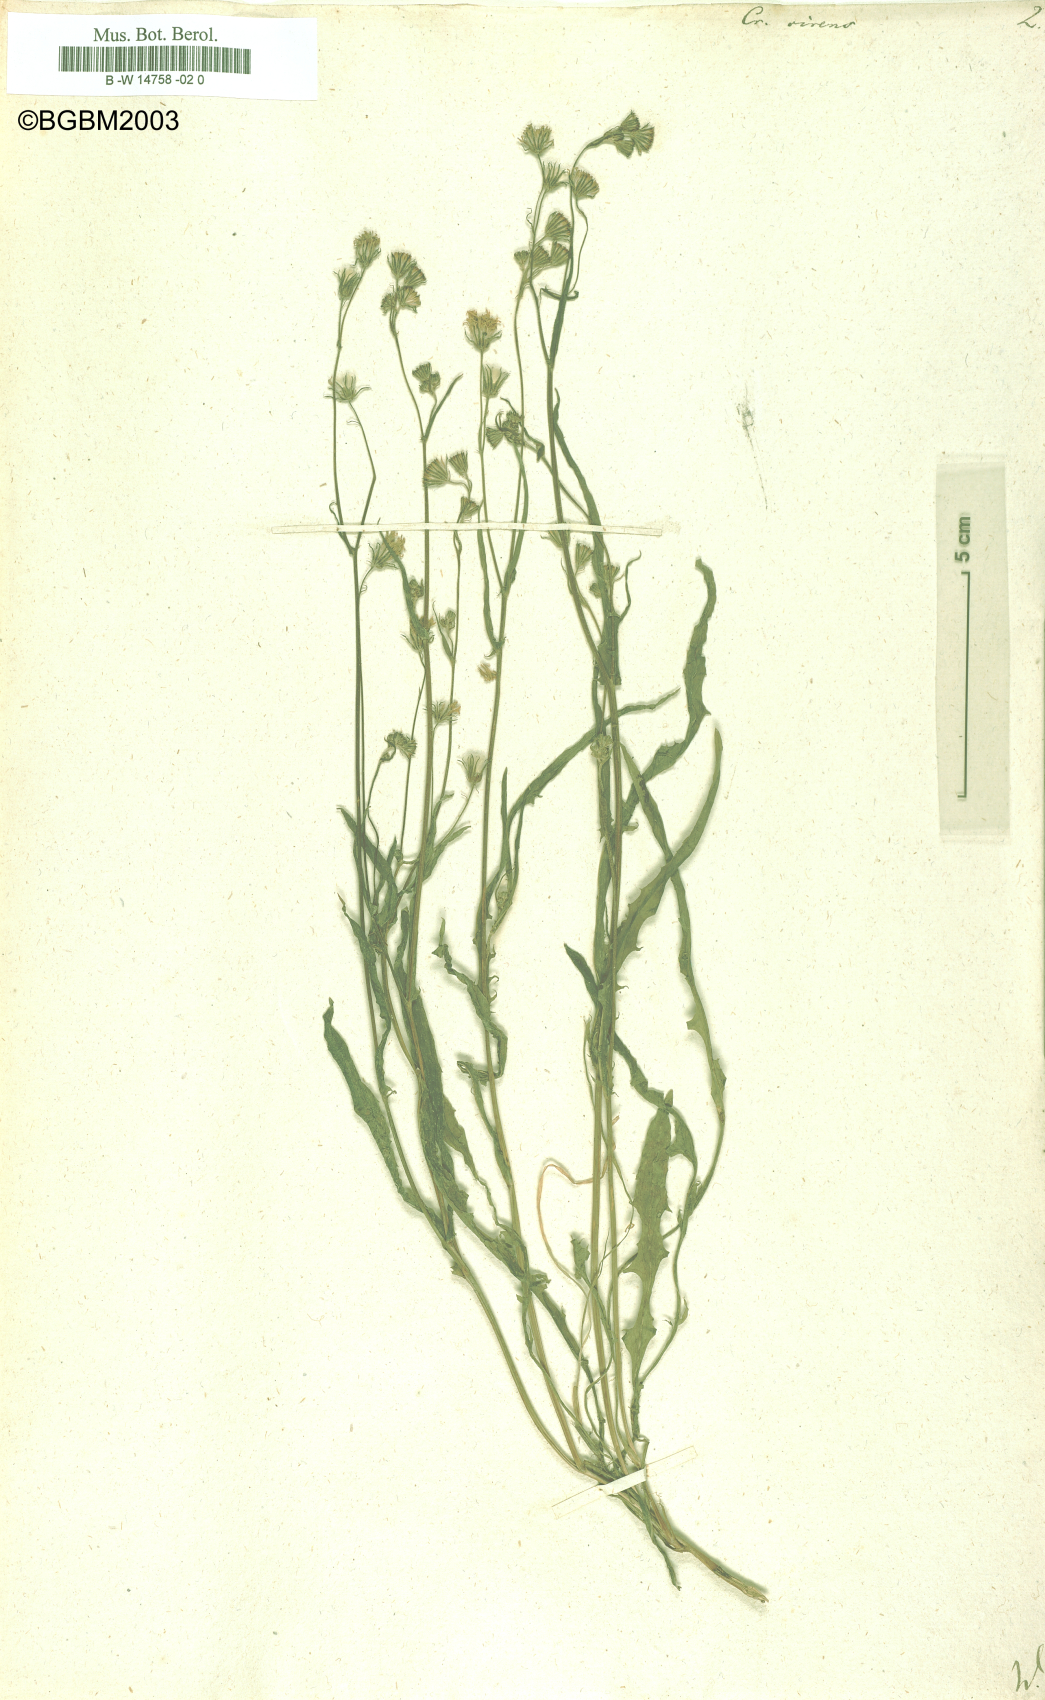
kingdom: Plantae
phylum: Tracheophyta
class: Magnoliopsida
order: Asterales
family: Asteraceae
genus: Crepis
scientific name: Crepis capillaris
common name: Smooth hawksbeard
